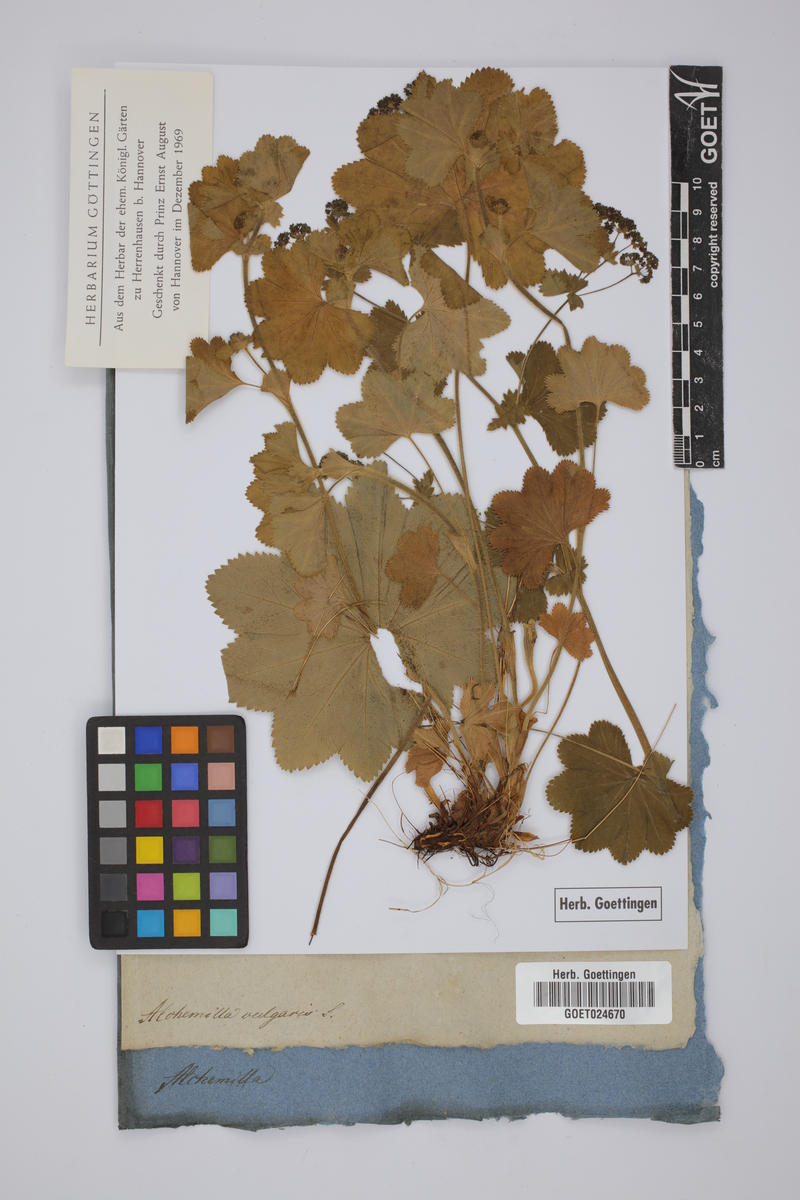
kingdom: Plantae
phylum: Tracheophyta
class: Magnoliopsida
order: Rosales
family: Rosaceae
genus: Alchemilla
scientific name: Alchemilla vulgaris
